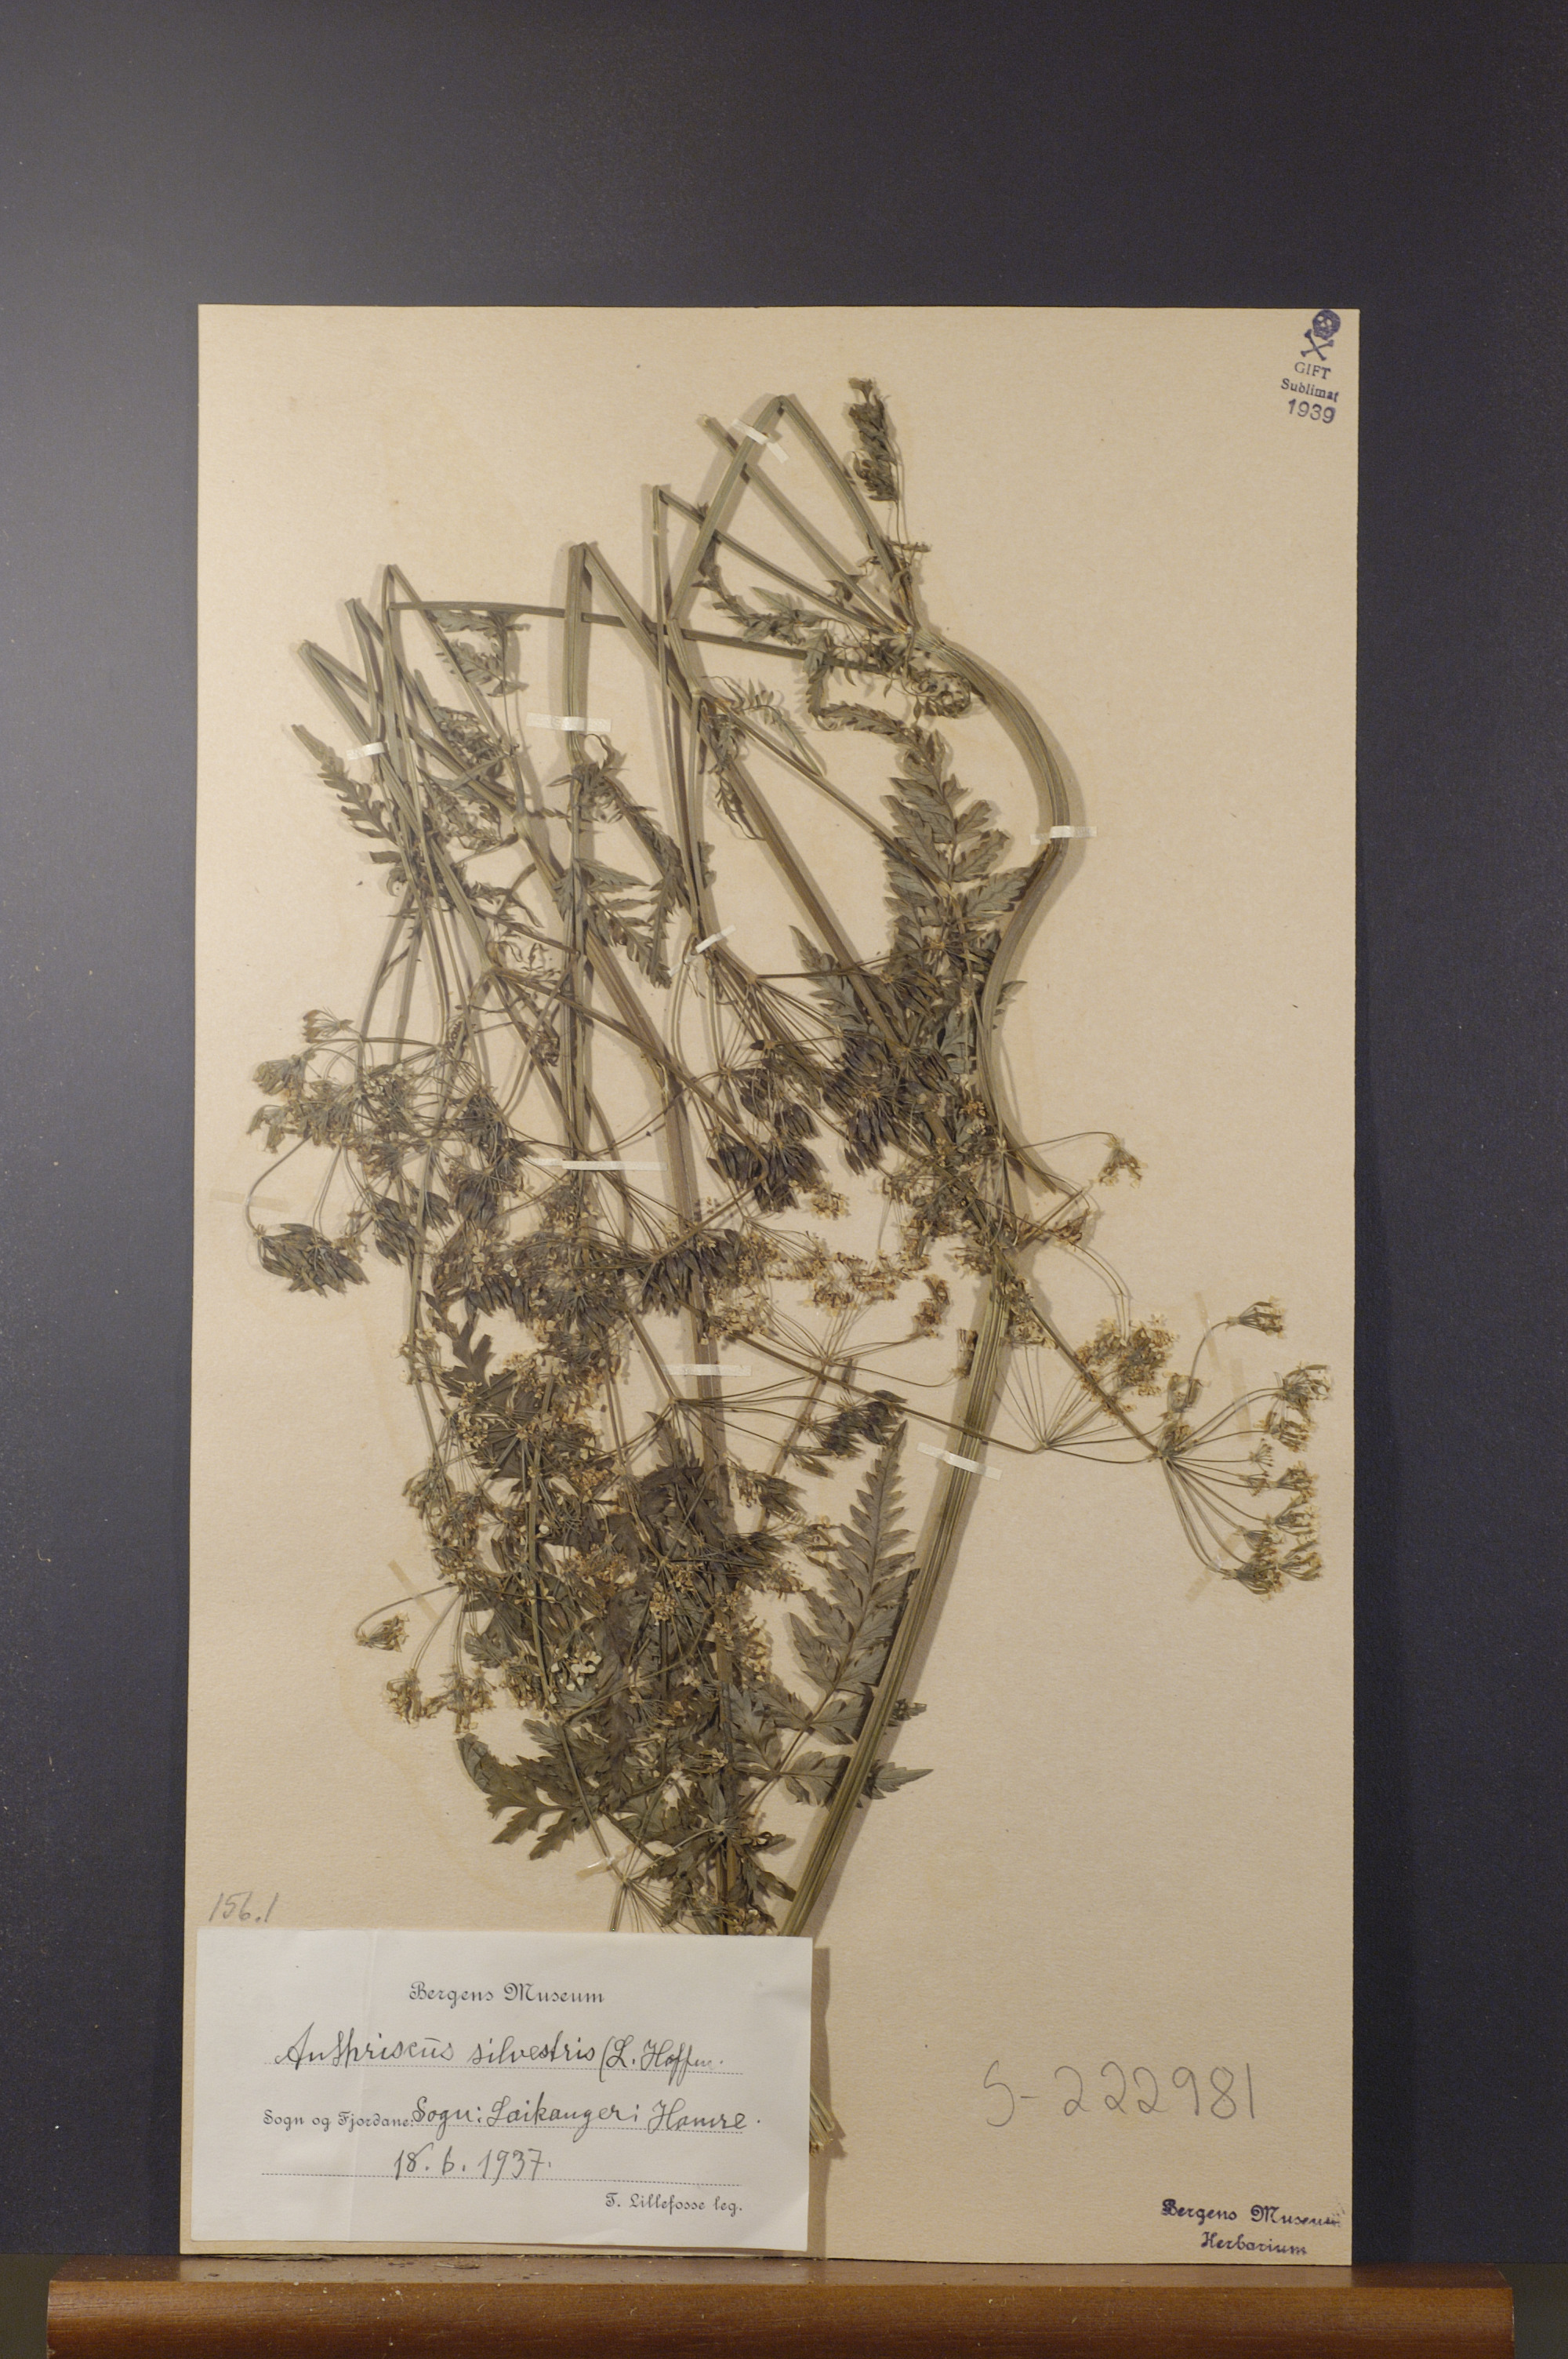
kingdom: Plantae
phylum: Tracheophyta
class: Magnoliopsida
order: Apiales
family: Apiaceae
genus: Anthriscus
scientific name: Anthriscus sylvestris
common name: Cow parsley
